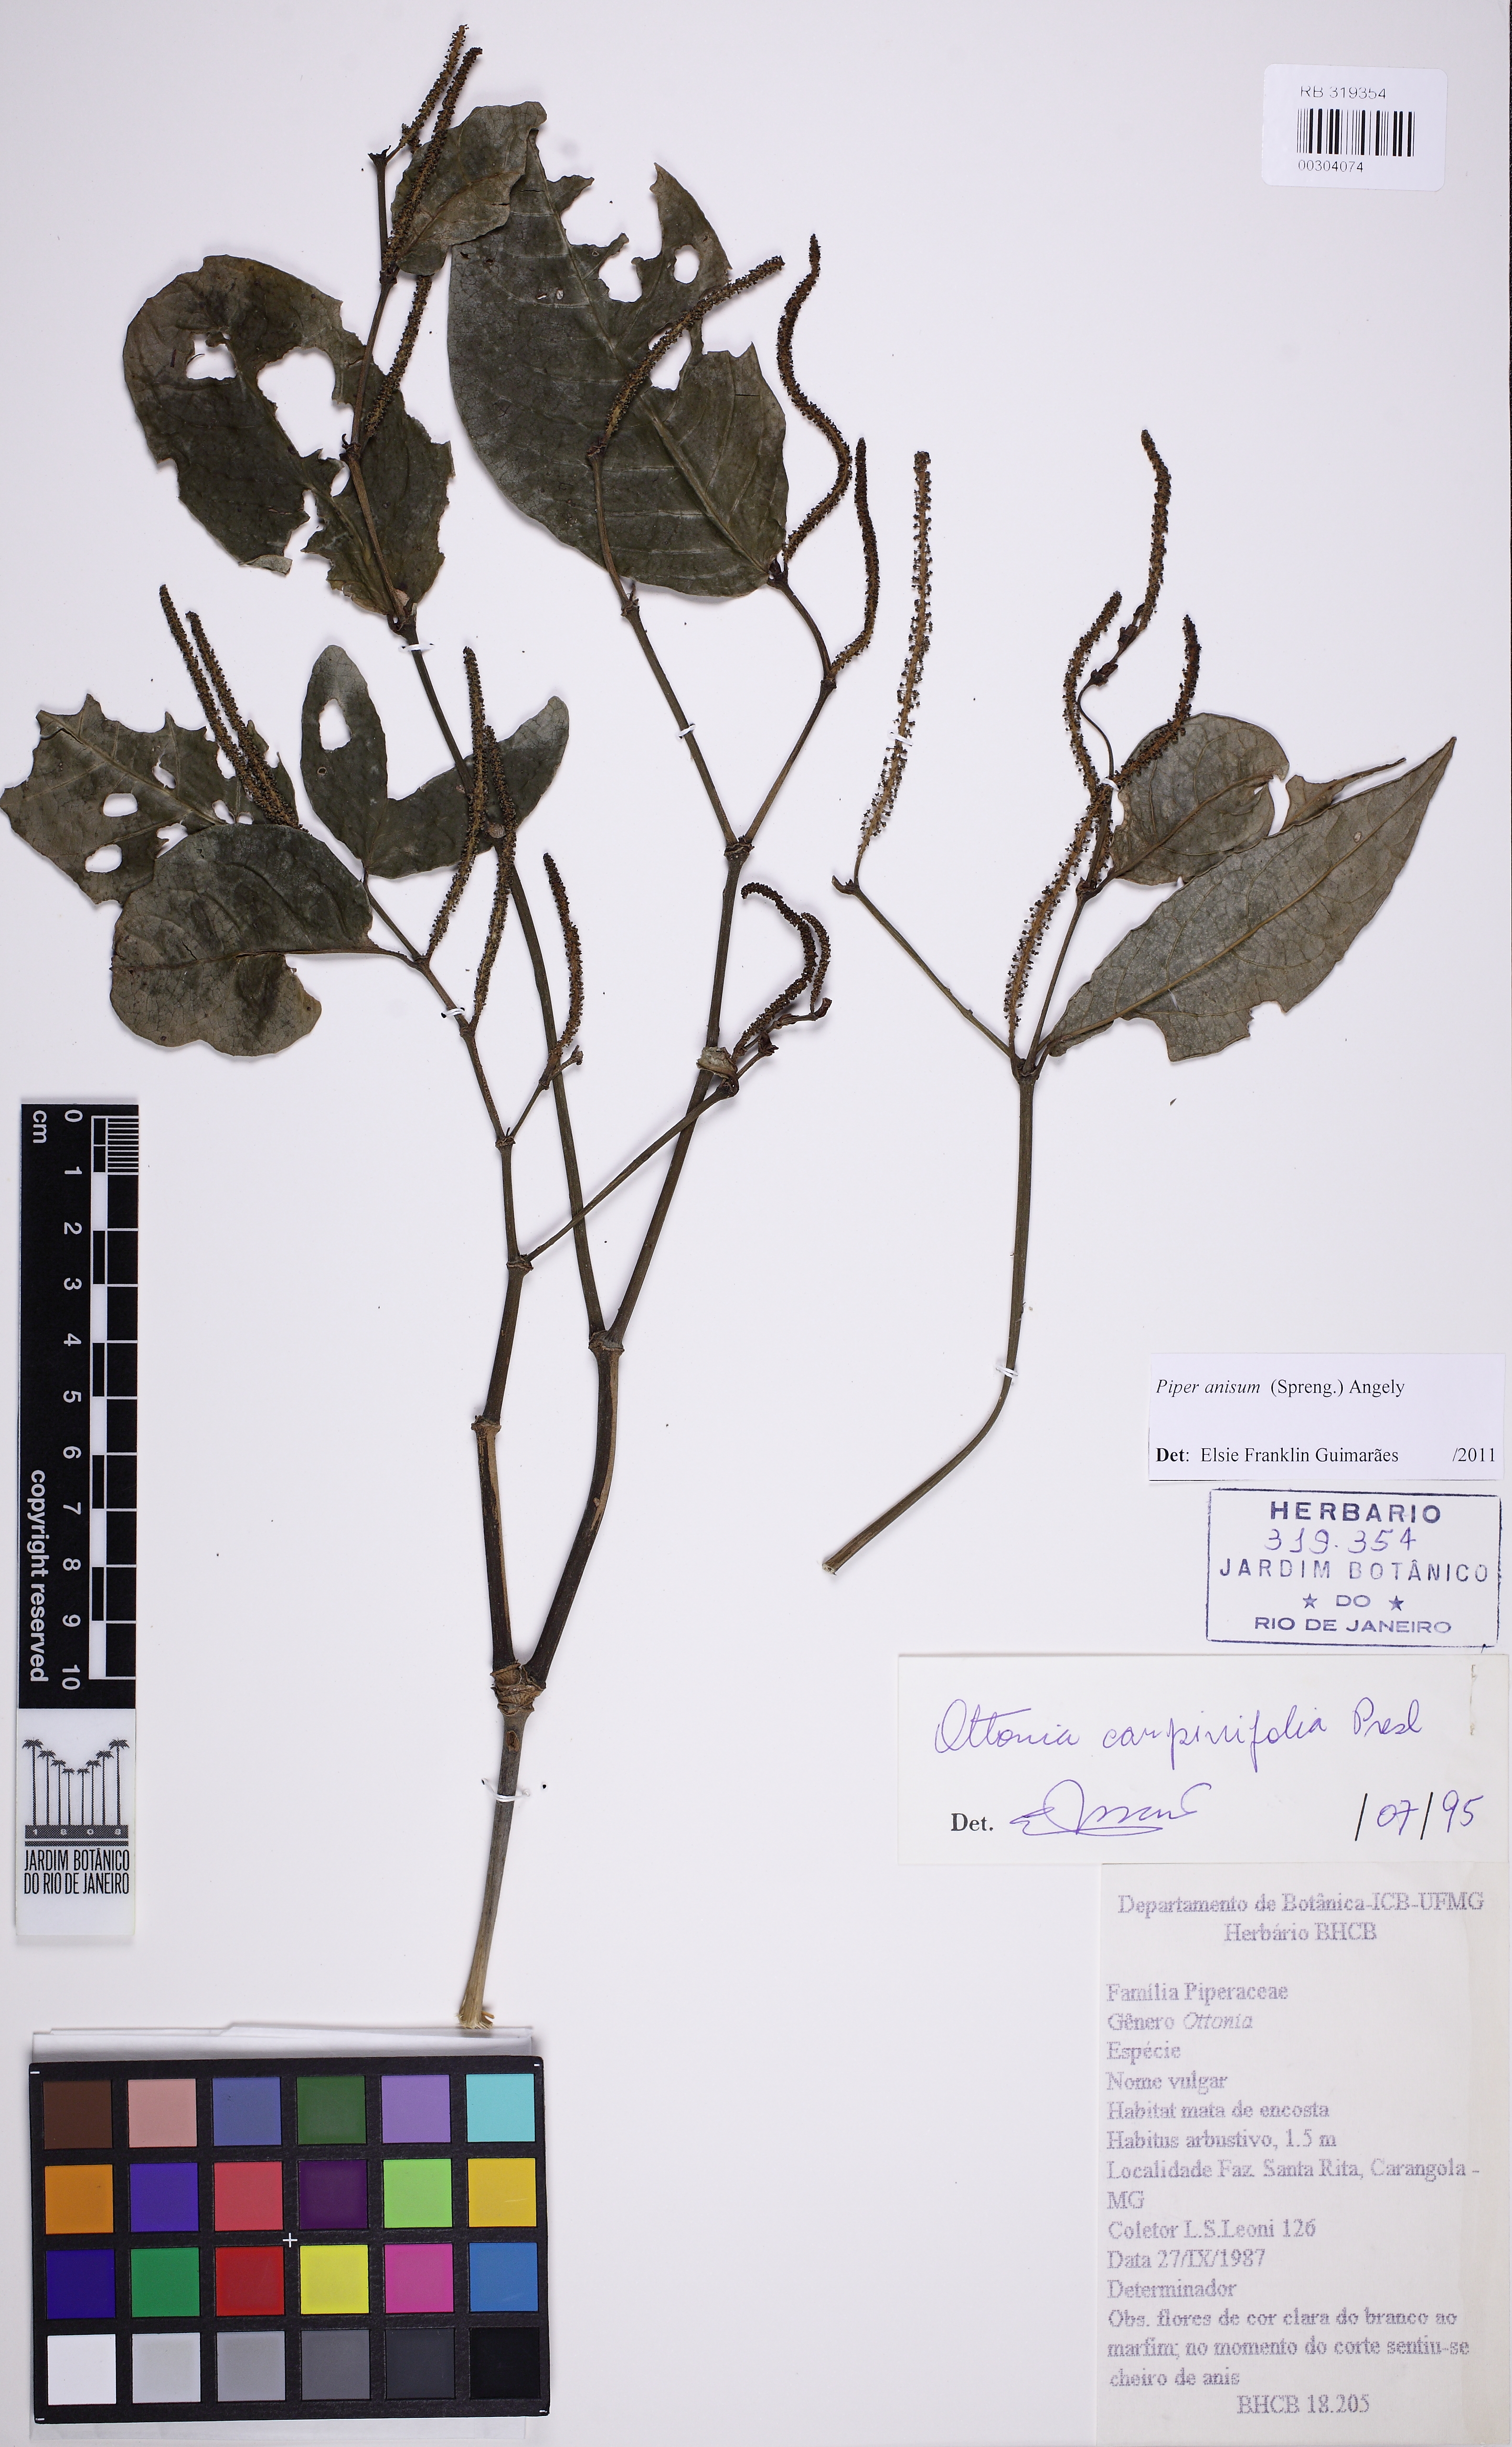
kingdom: Plantae
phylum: Tracheophyta
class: Magnoliopsida
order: Piperales
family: Piperaceae
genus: Piper
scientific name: Piper anisum
